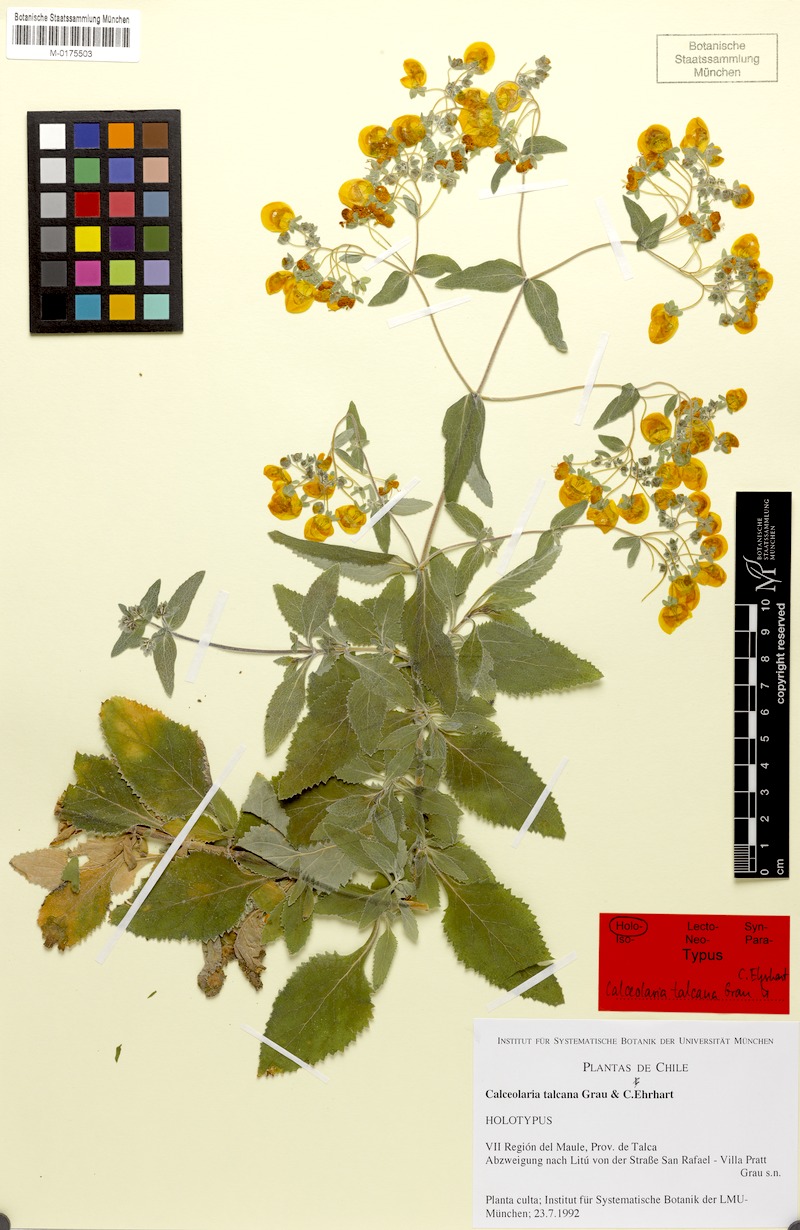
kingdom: Plantae
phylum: Tracheophyta
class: Magnoliopsida
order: Lamiales
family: Calceolariaceae
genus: Calceolaria
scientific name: Calceolaria talcana
